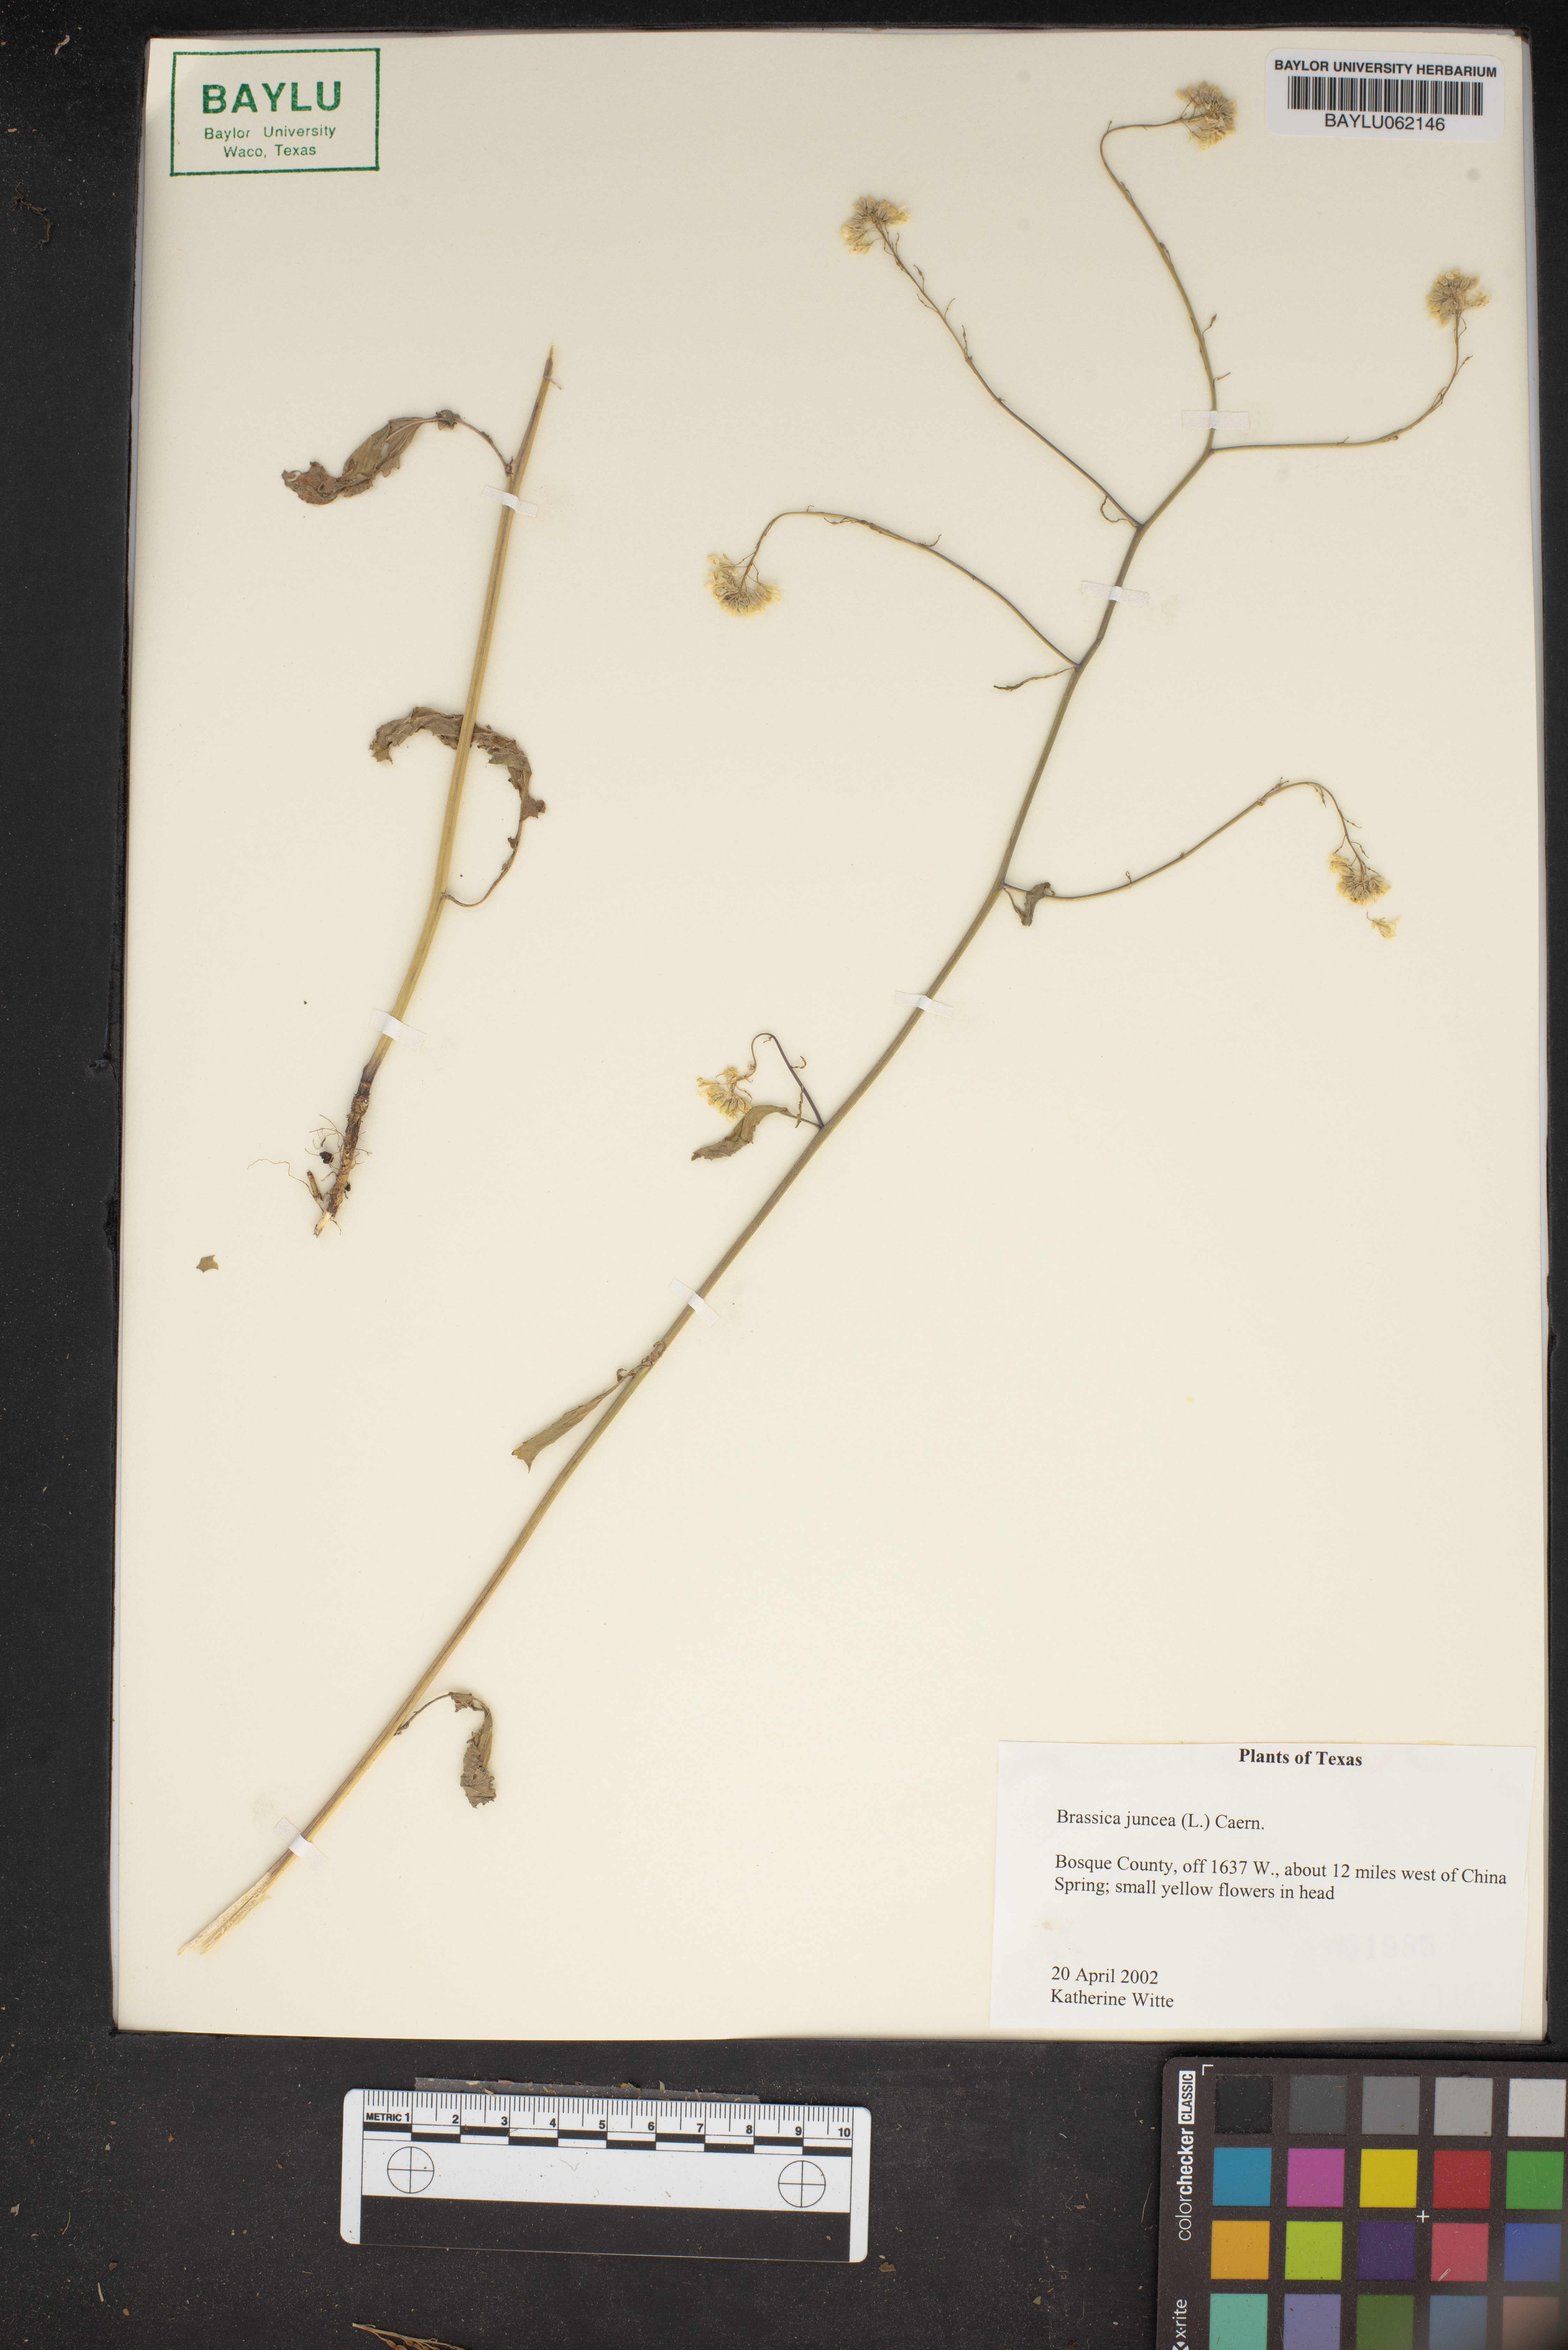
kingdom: Plantae
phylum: Tracheophyta
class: Magnoliopsida
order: Brassicales
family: Brassicaceae
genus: Brassica
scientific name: Brassica juncea
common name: Brown mustard
